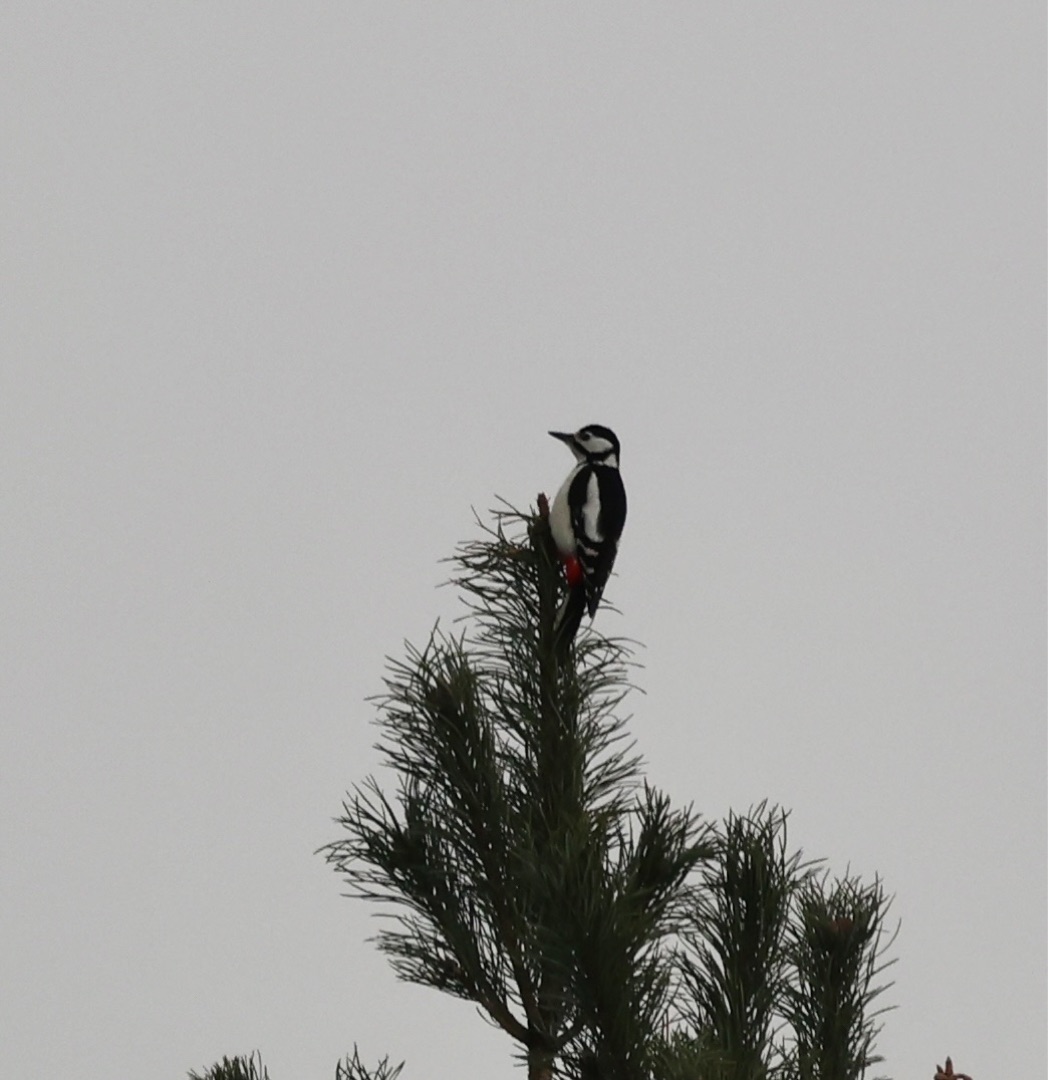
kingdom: Animalia
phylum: Chordata
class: Aves
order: Piciformes
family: Picidae
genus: Dendrocopos
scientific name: Dendrocopos major
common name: Stor flagspætte
